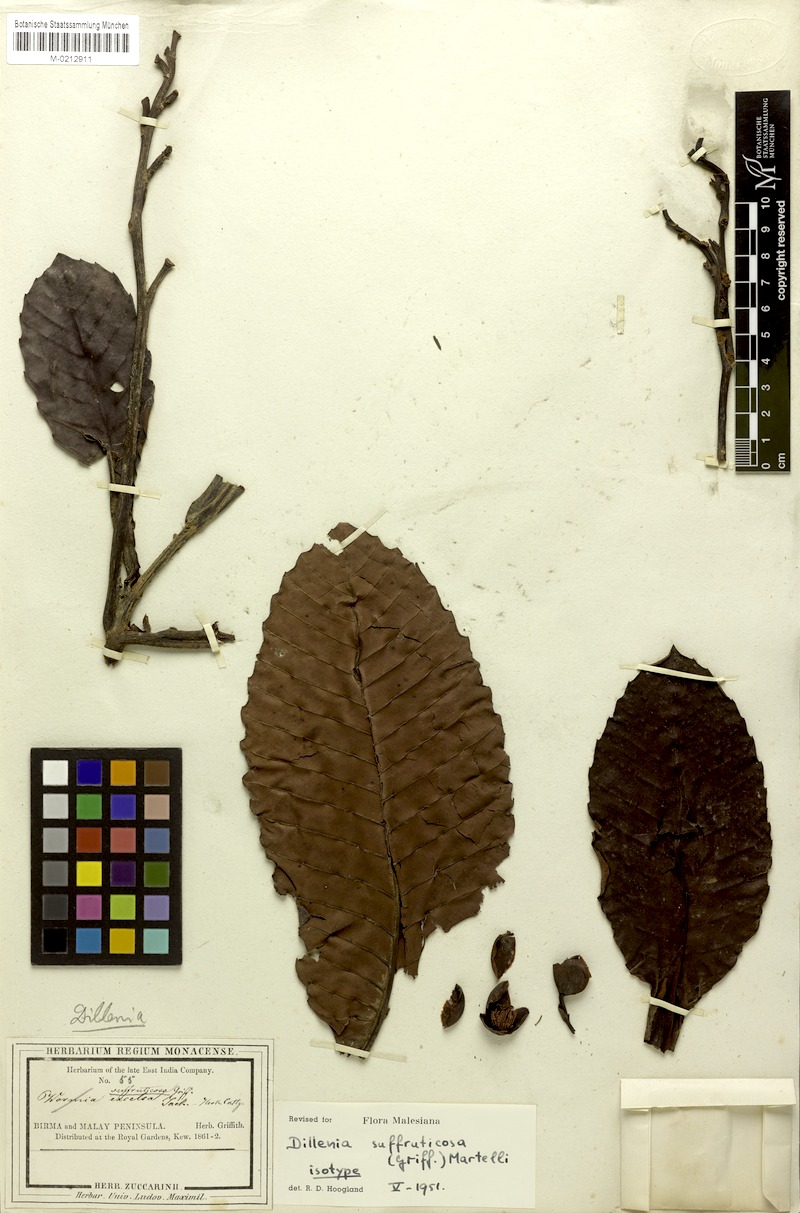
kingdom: Plantae
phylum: Tracheophyta
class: Magnoliopsida
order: Dilleniales
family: Dilleniaceae
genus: Dillenia
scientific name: Dillenia suffruticosa
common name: Shrubby dillenia
